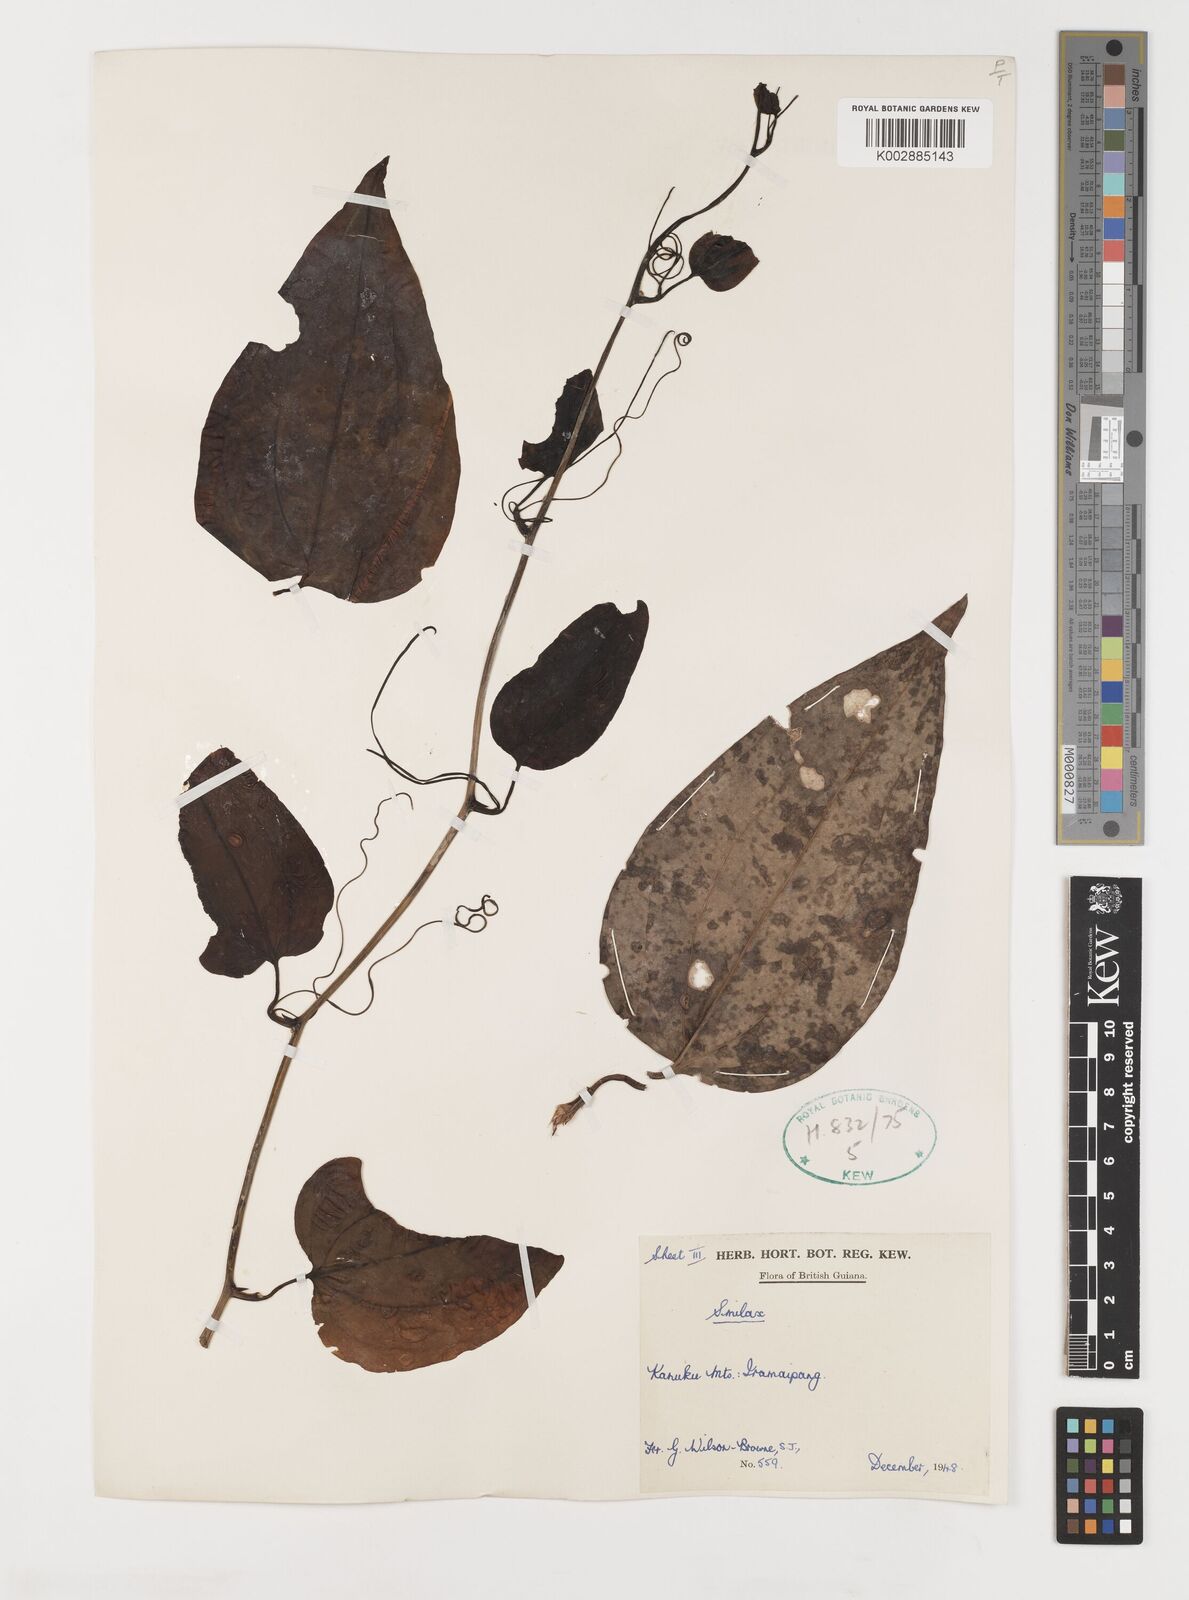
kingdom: Plantae
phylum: Tracheophyta
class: Liliopsida
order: Liliales
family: Smilacaceae
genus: Smilax
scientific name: Smilax
